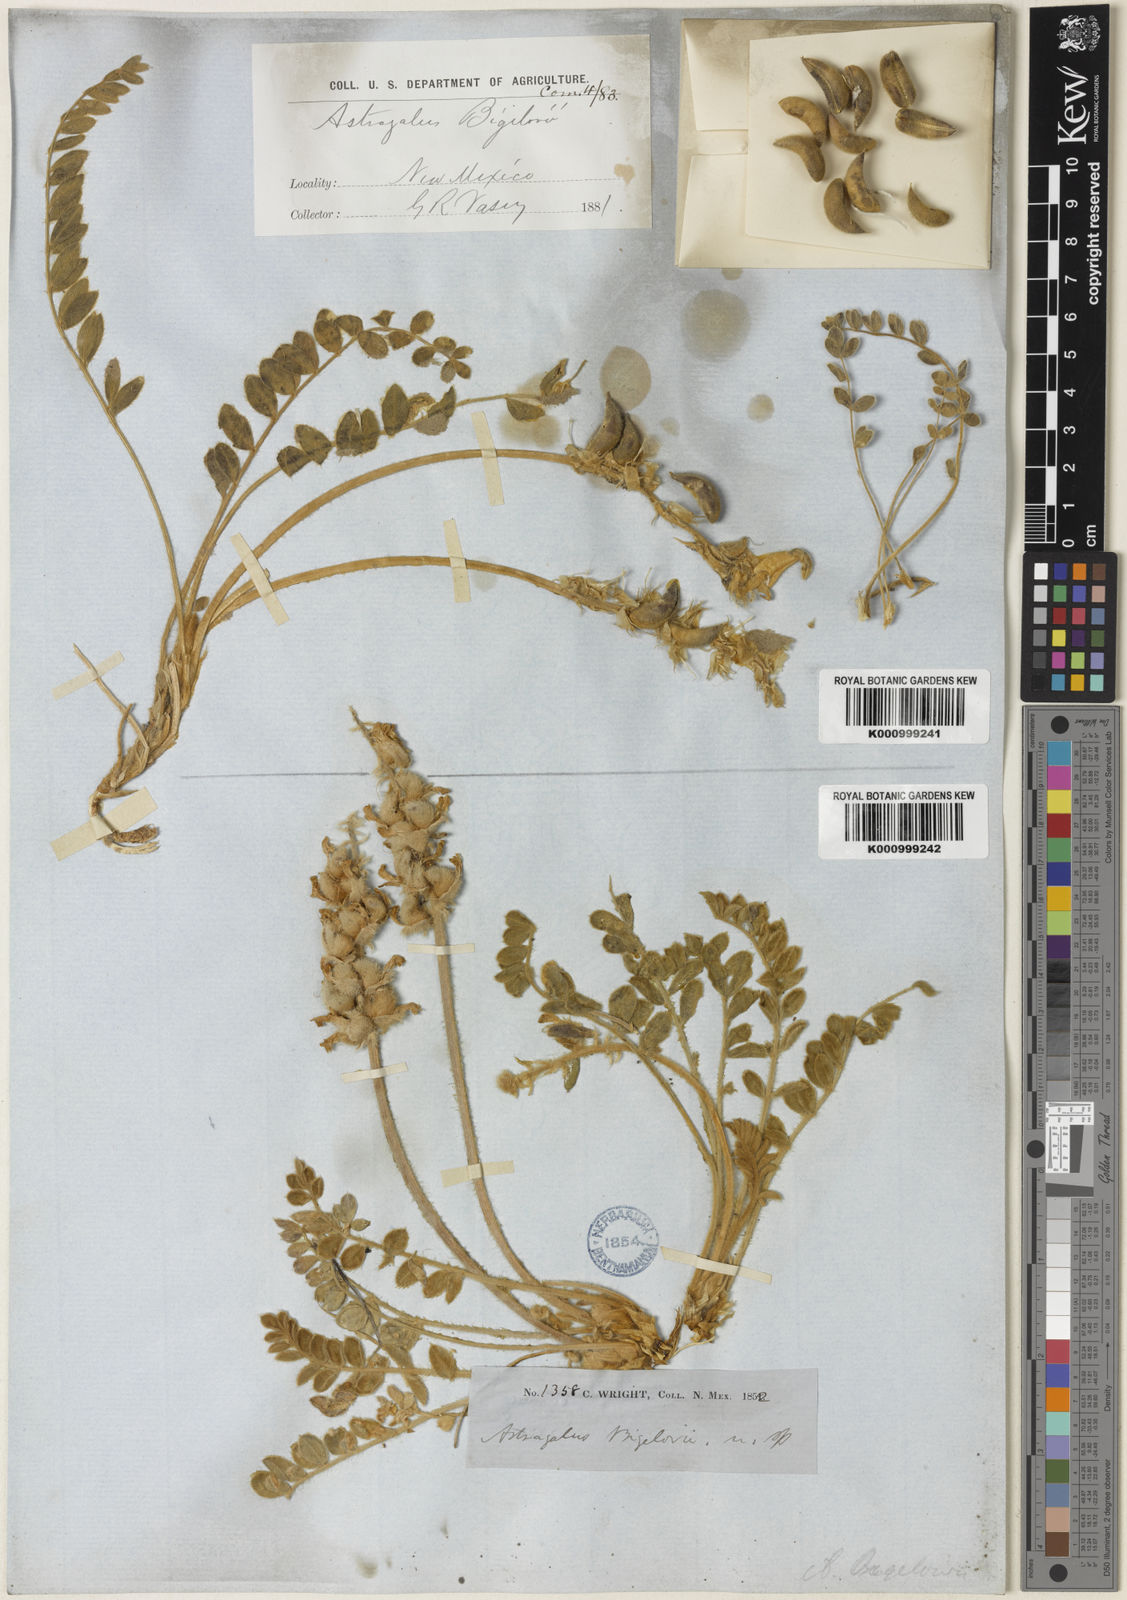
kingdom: Plantae
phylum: Tracheophyta
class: Magnoliopsida
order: Fabales
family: Fabaceae
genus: Astragalus
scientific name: Astragalus
